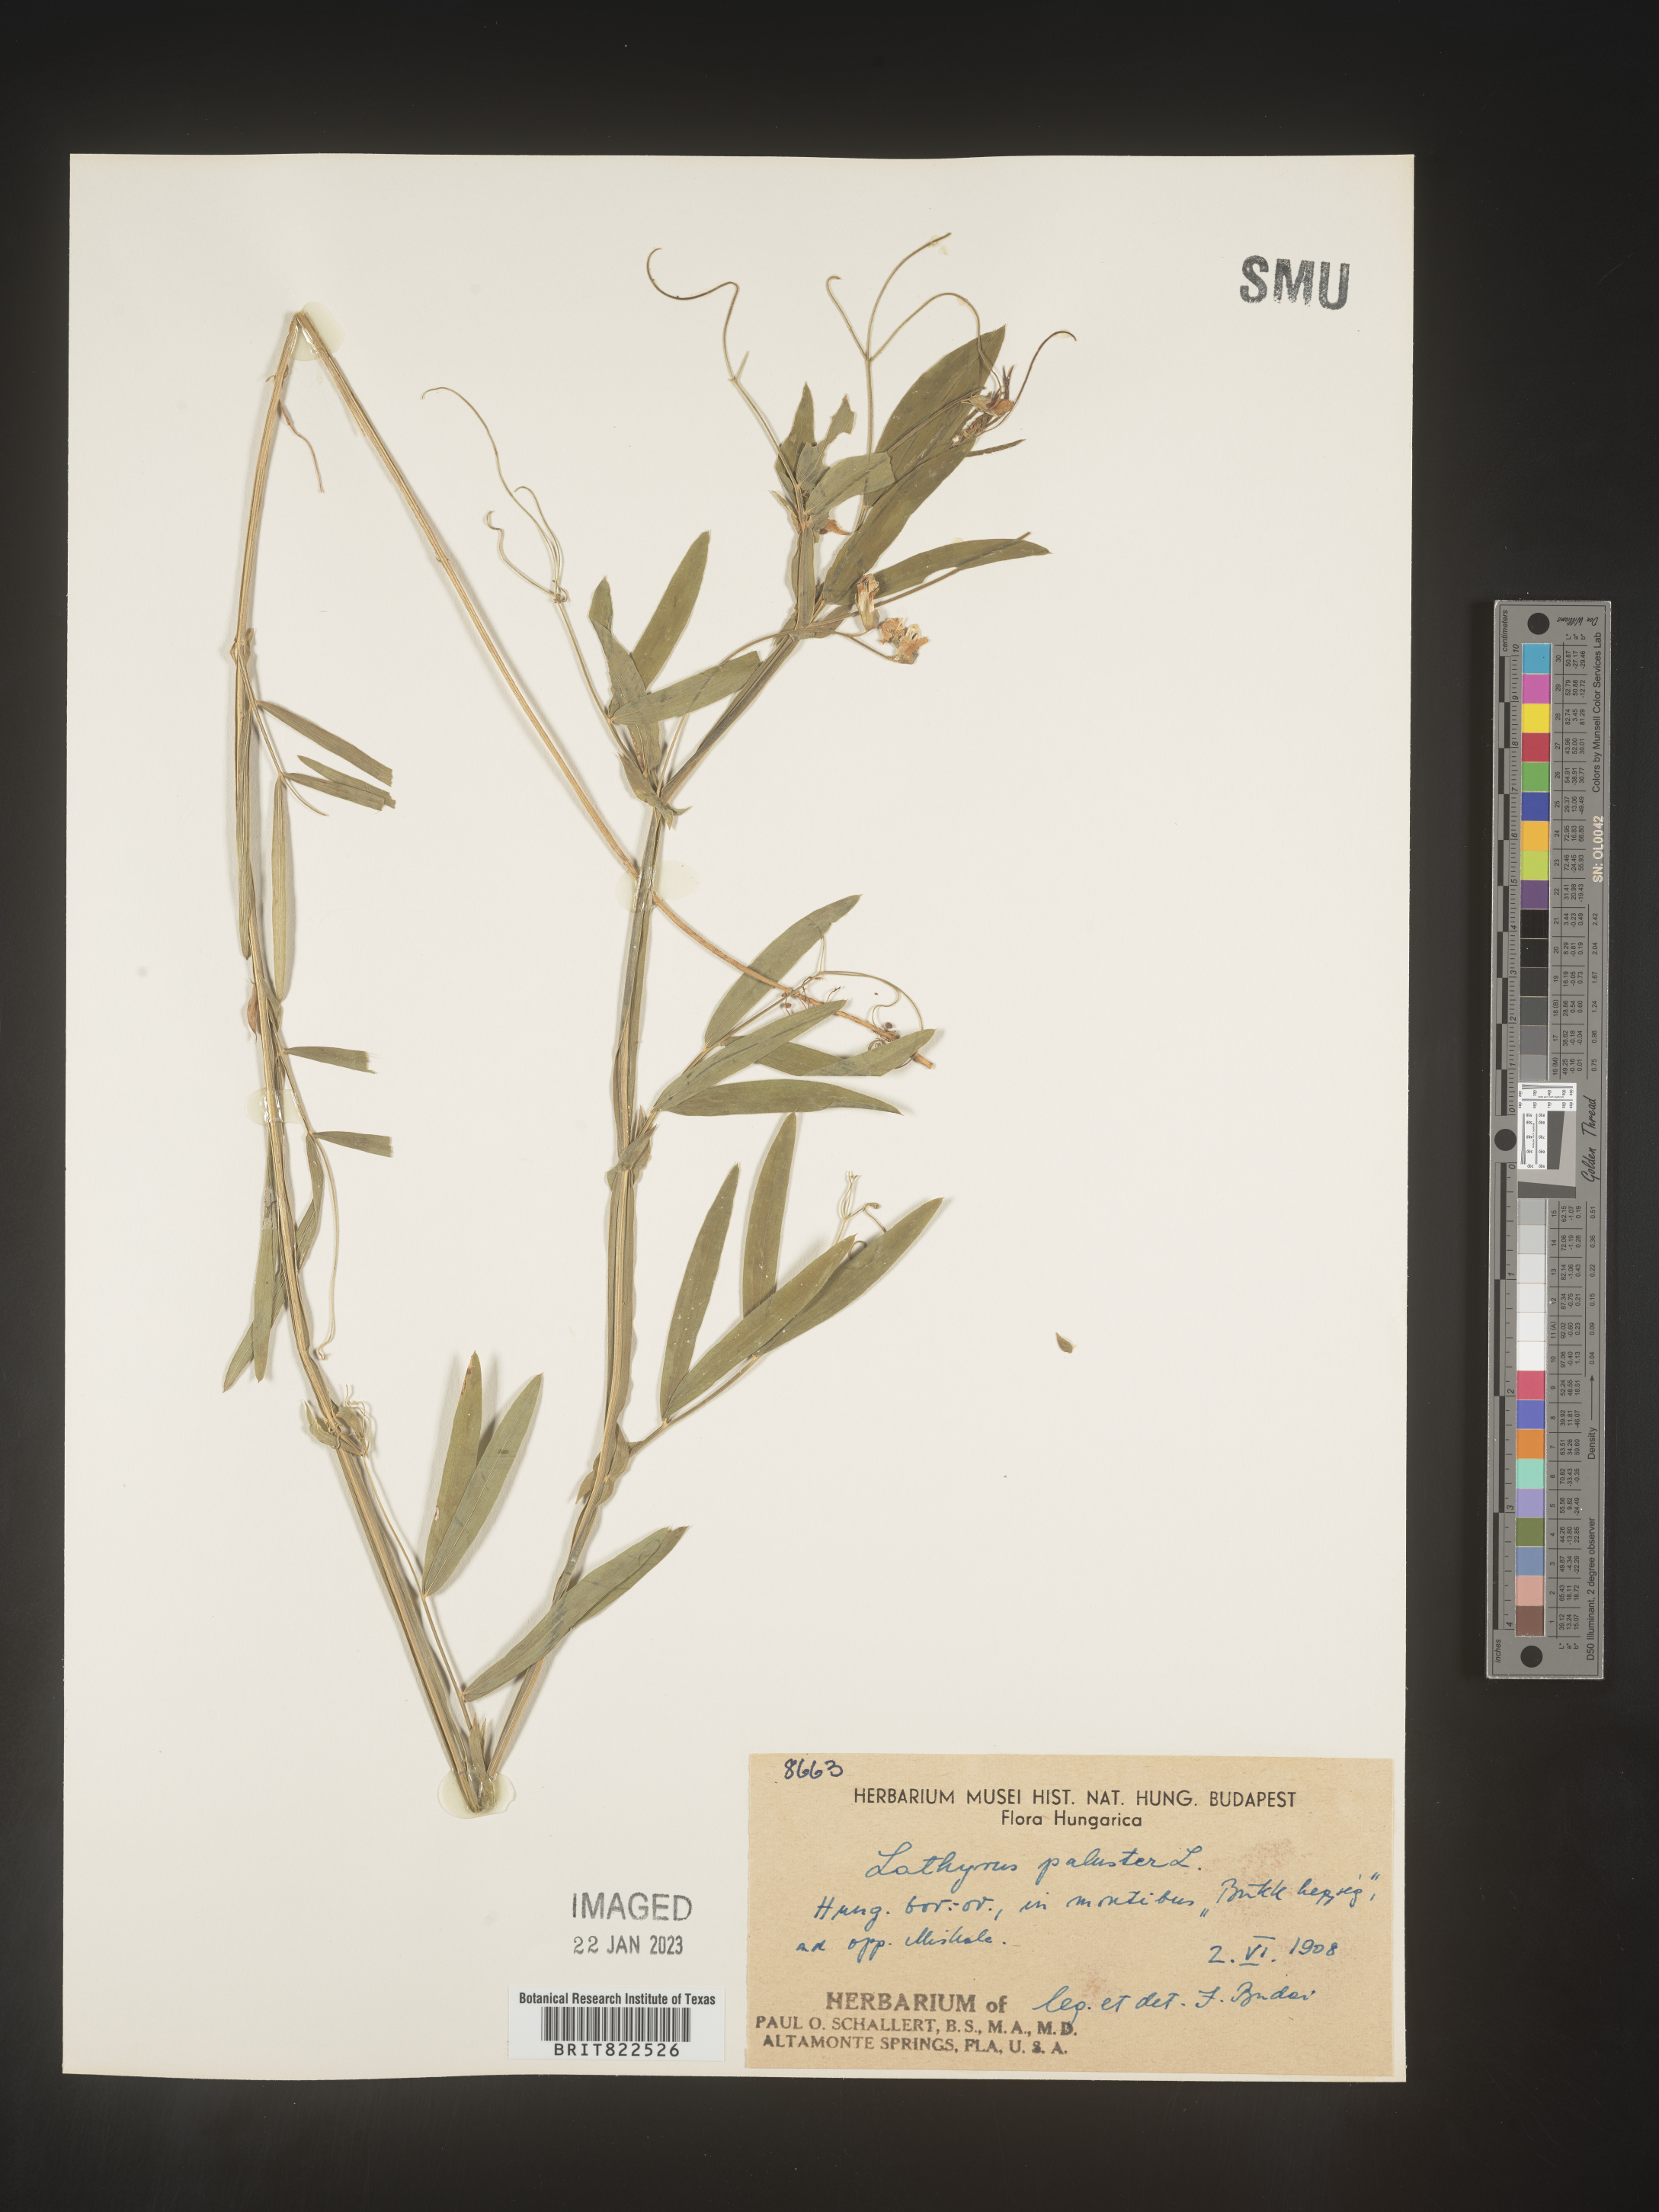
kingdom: Plantae
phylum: Tracheophyta
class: Magnoliopsida
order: Fabales
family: Fabaceae
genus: Lathyrus
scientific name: Lathyrus
